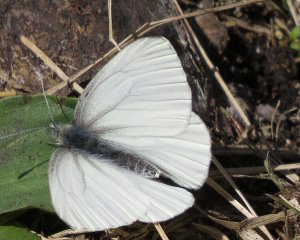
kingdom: Animalia
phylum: Arthropoda
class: Insecta
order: Lepidoptera
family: Pieridae
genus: Pieris
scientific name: Pieris oleracea
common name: Mustard White
